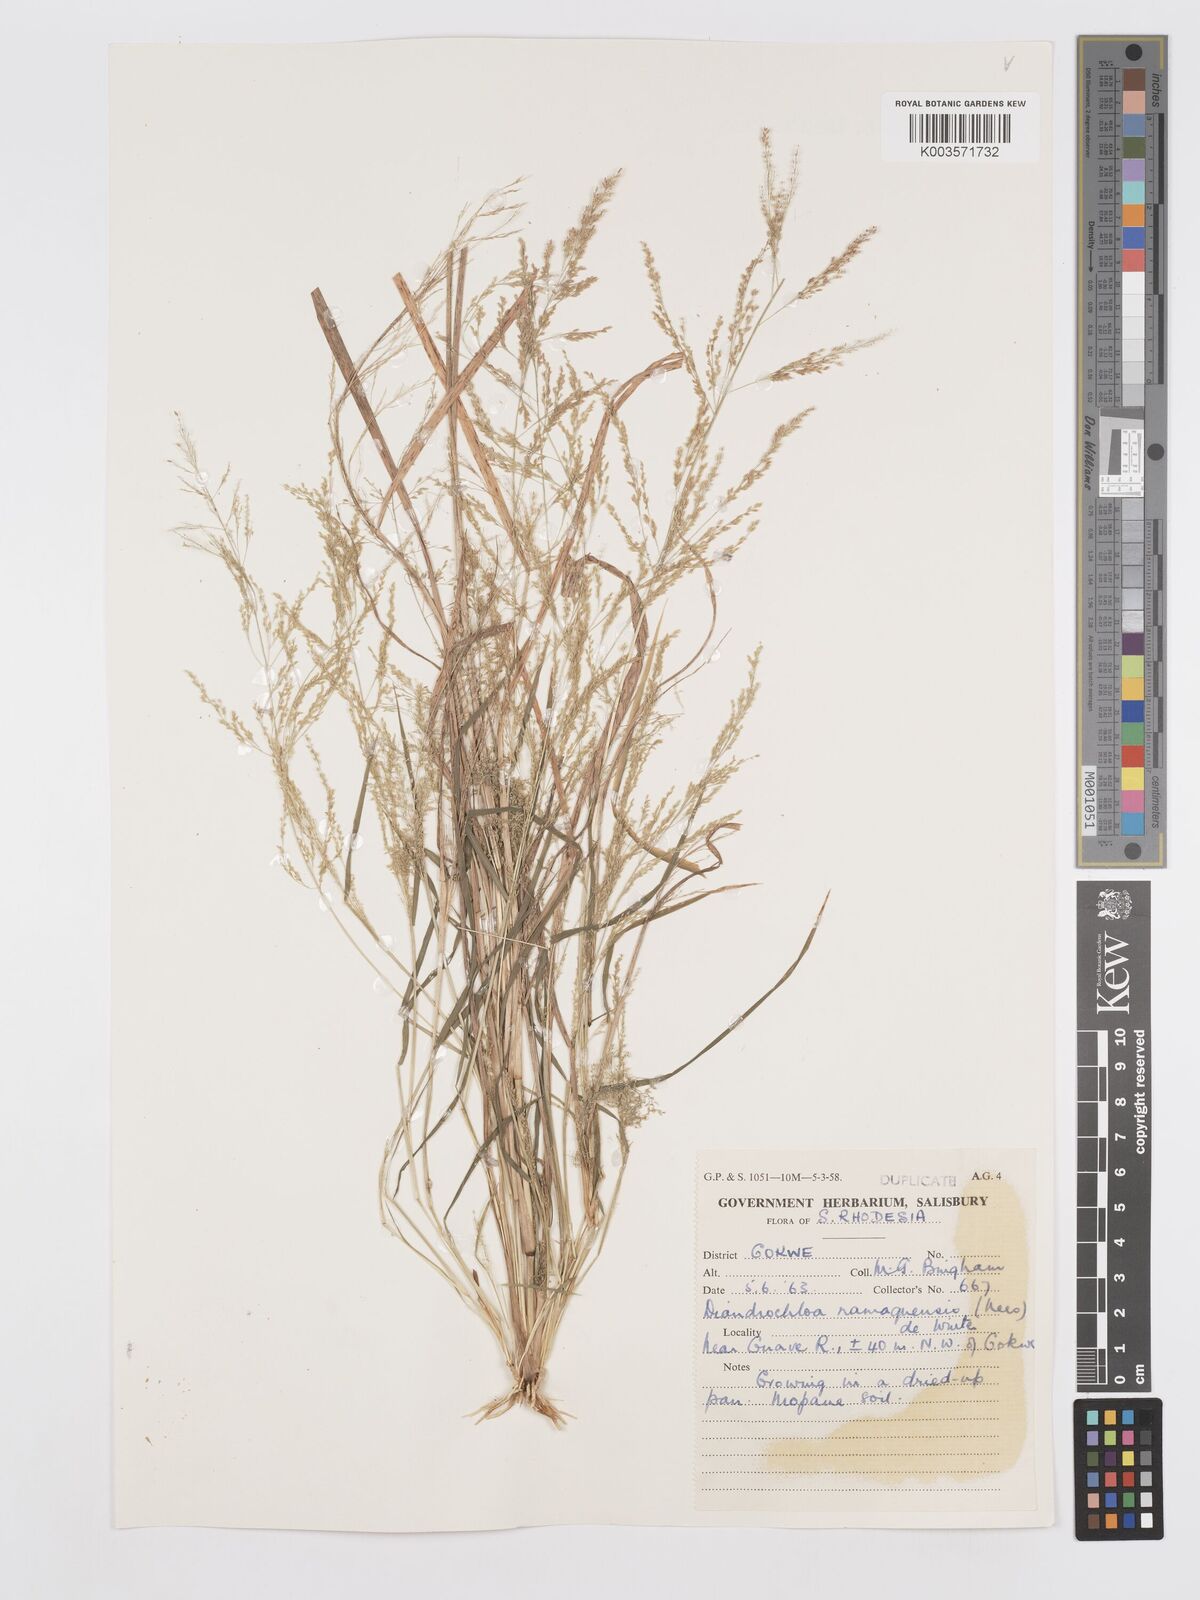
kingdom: Plantae
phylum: Tracheophyta
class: Liliopsida
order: Poales
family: Poaceae
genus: Eragrostis
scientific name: Eragrostis japonica
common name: Pond lovegrass
